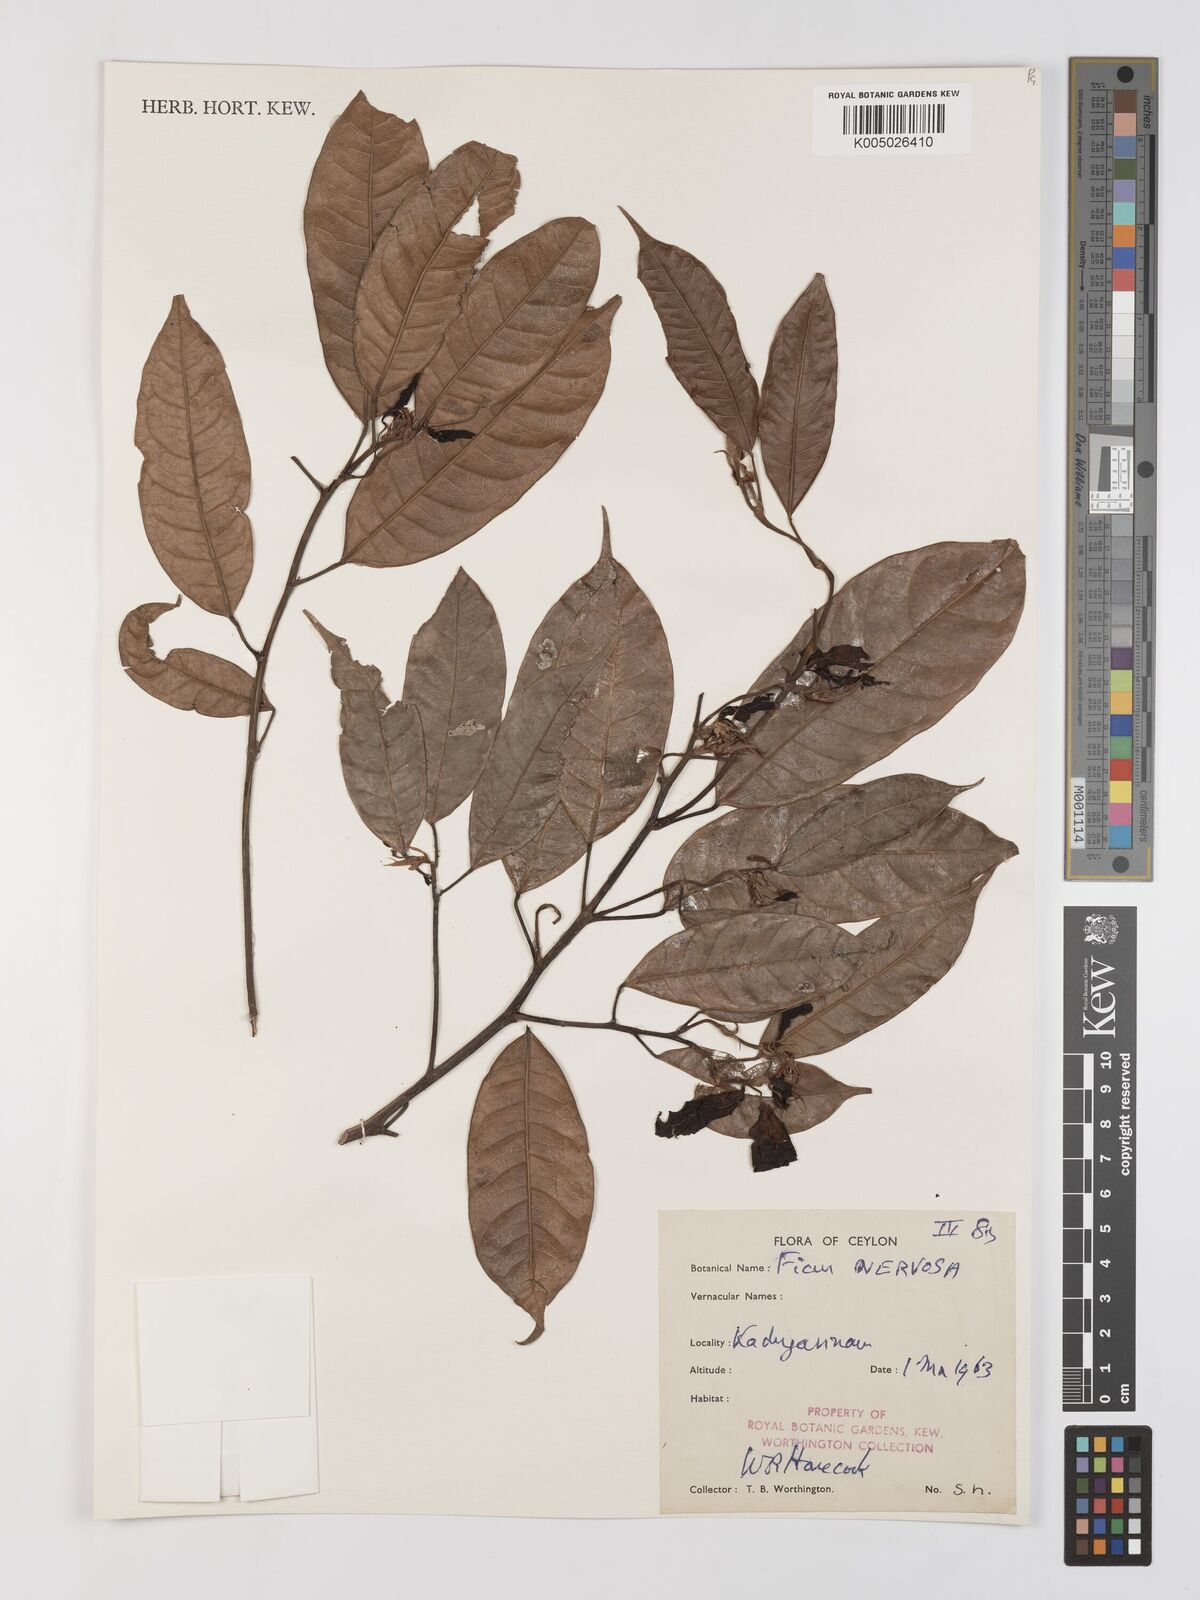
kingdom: Plantae
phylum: Tracheophyta
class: Magnoliopsida
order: Rosales
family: Moraceae
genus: Ficus
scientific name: Ficus nervosa
